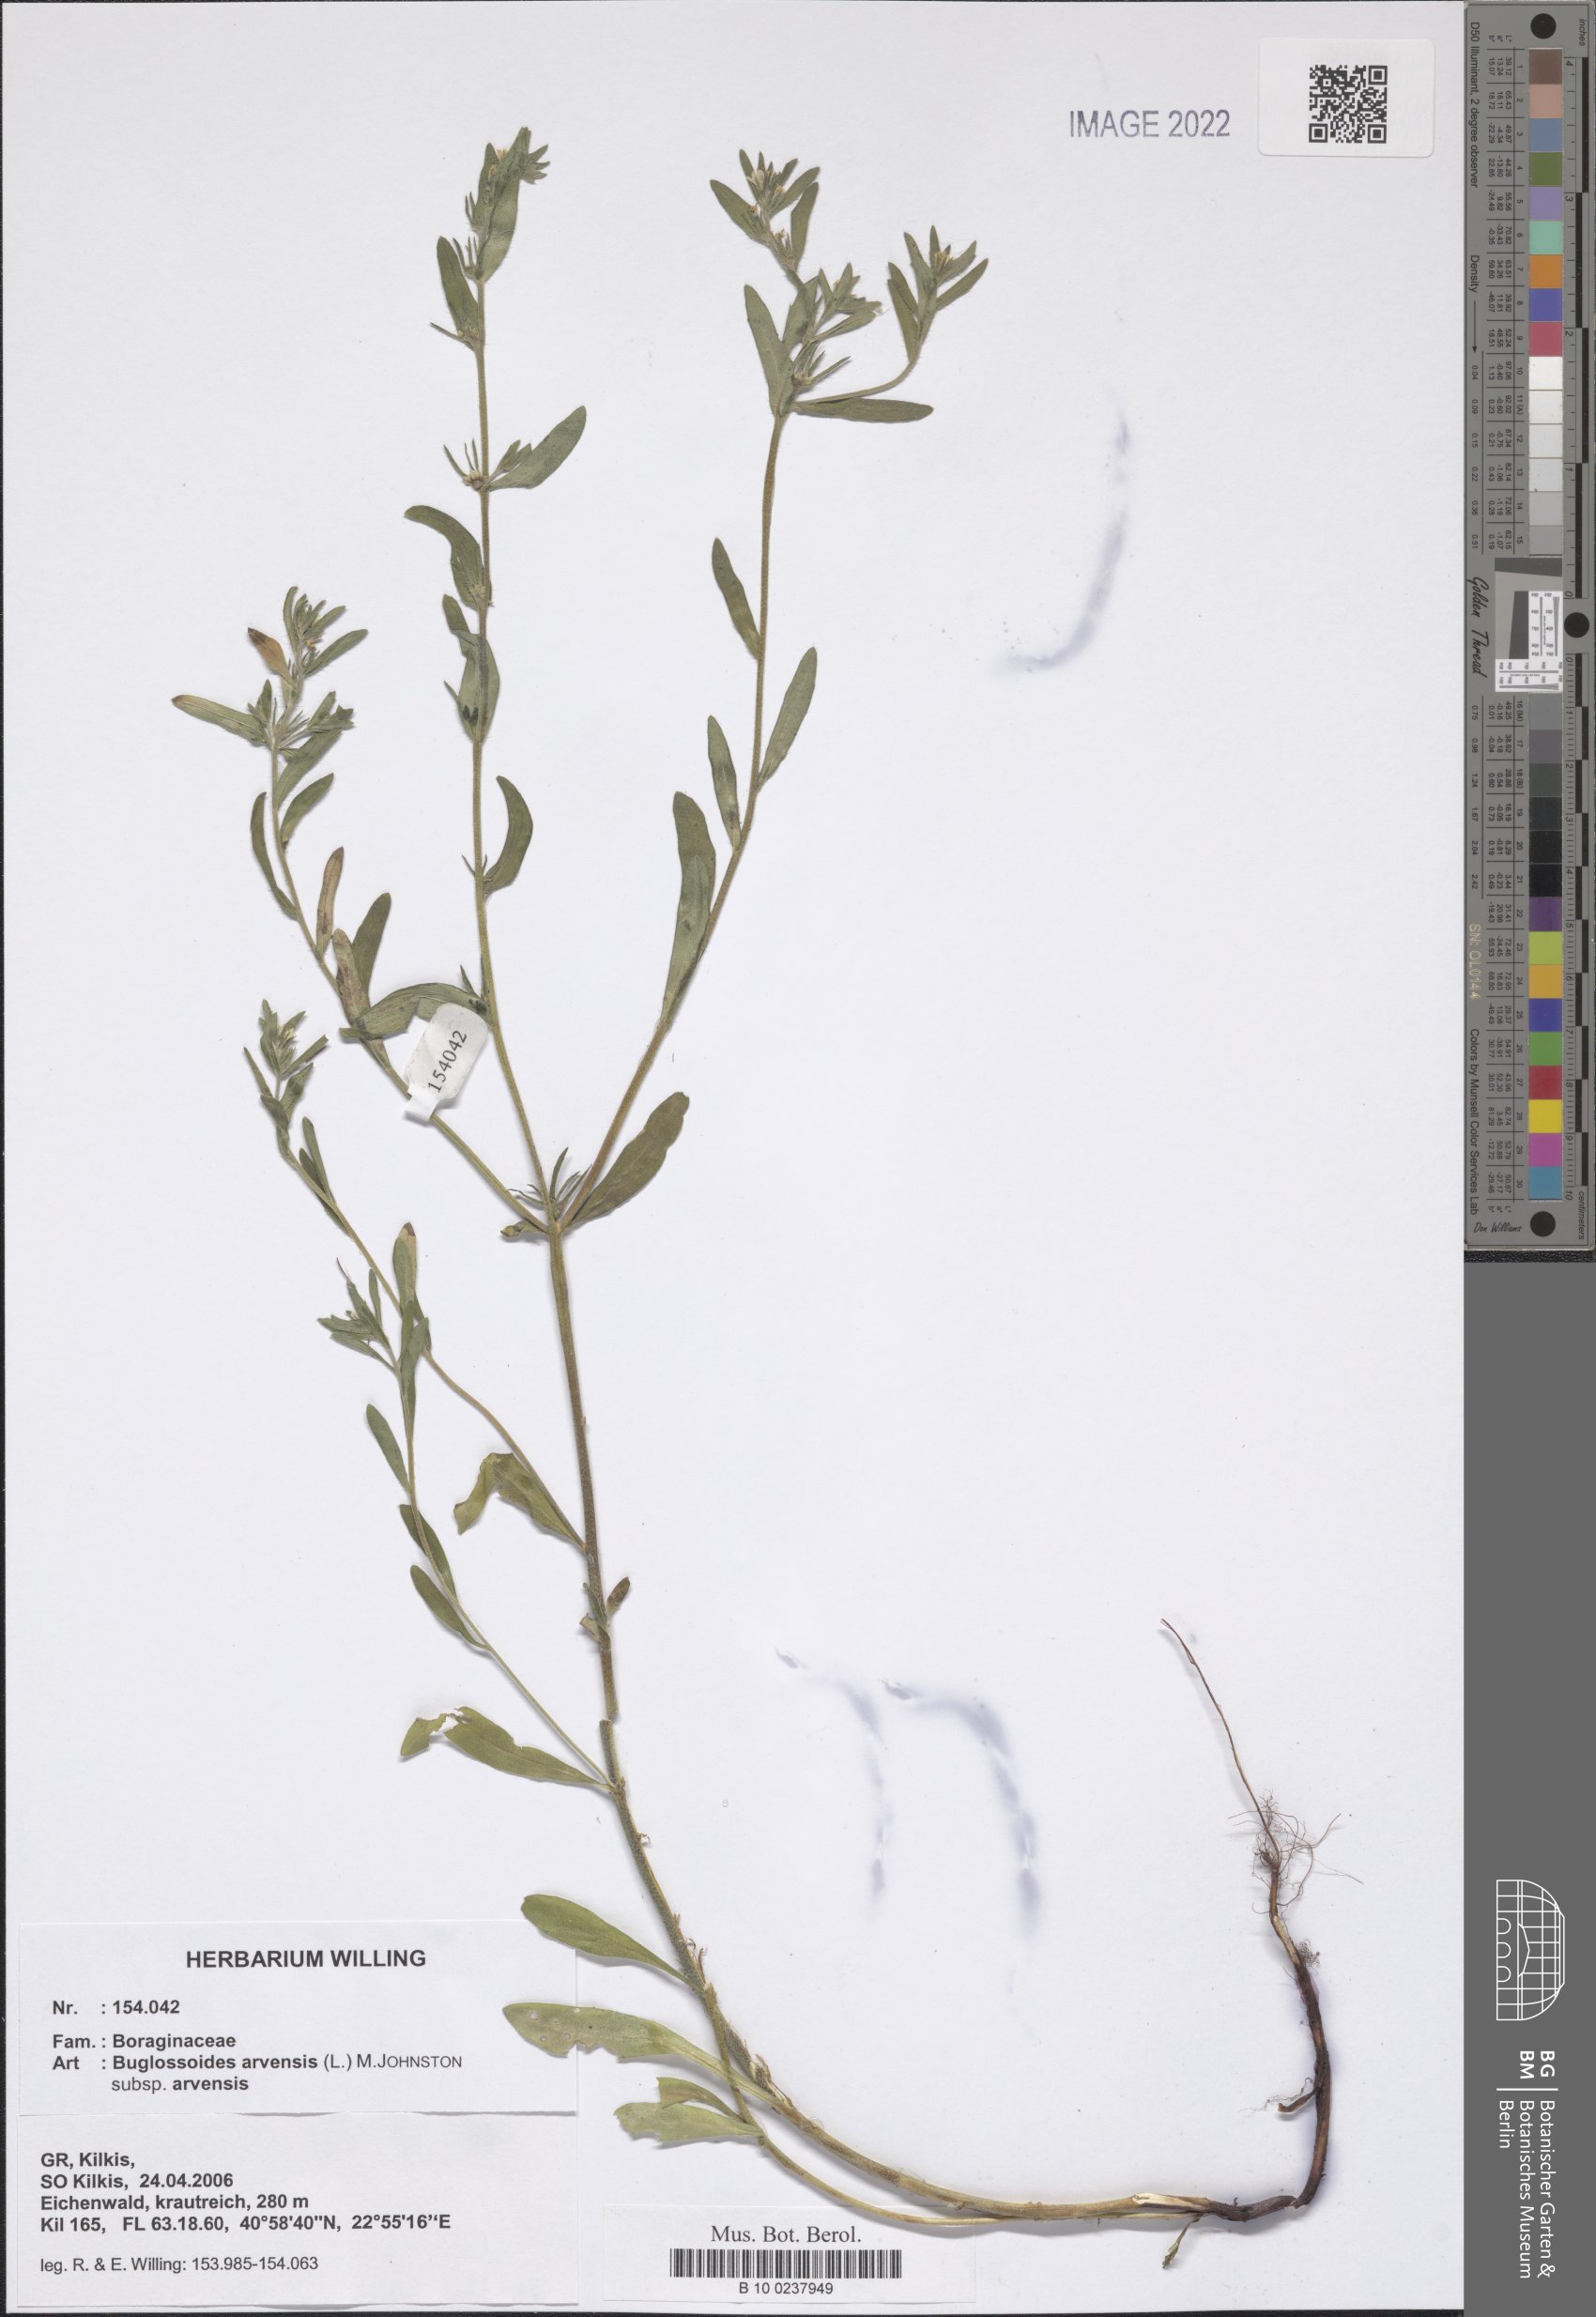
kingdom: Plantae
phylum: Tracheophyta
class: Magnoliopsida
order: Boraginales
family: Boraginaceae
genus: Buglossoides
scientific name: Buglossoides arvensis
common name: Corn gromwell
